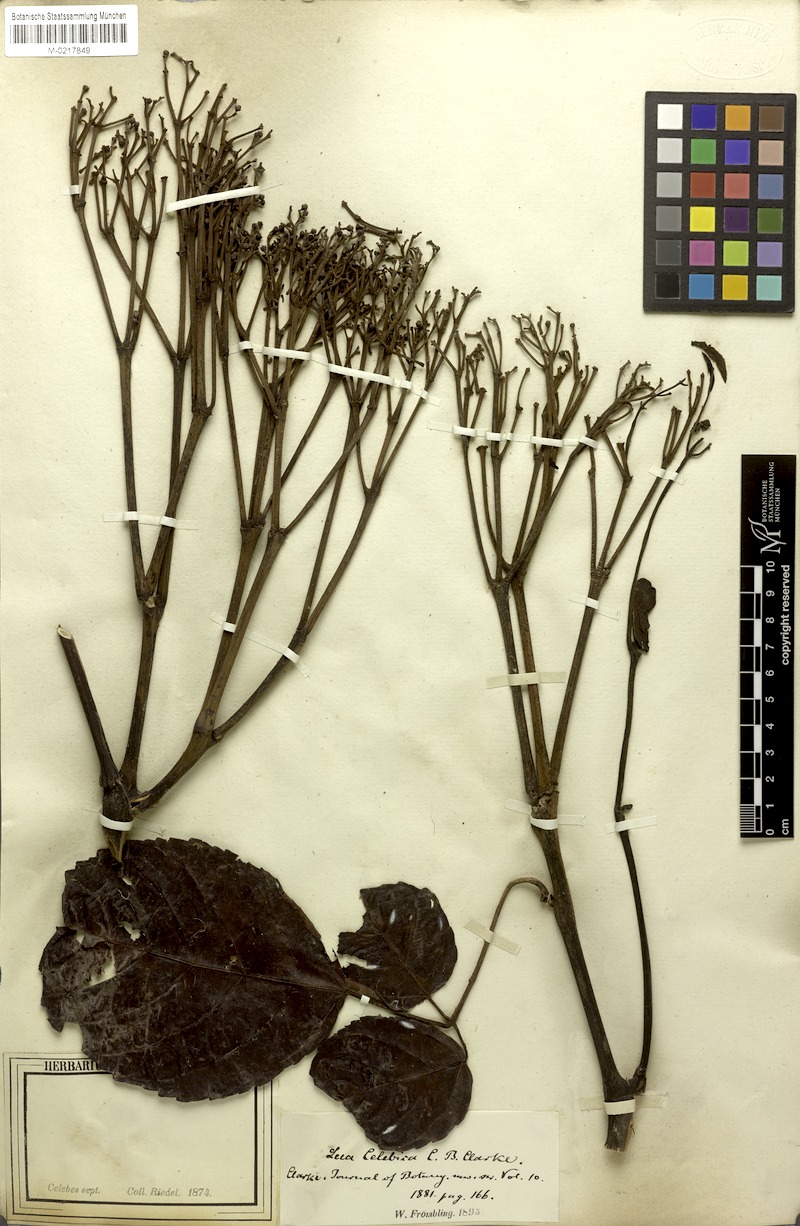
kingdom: Plantae
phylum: Tracheophyta
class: Magnoliopsida
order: Vitales
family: Vitaceae
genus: Leea
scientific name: Leea indica
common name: Bandicoot-berry
